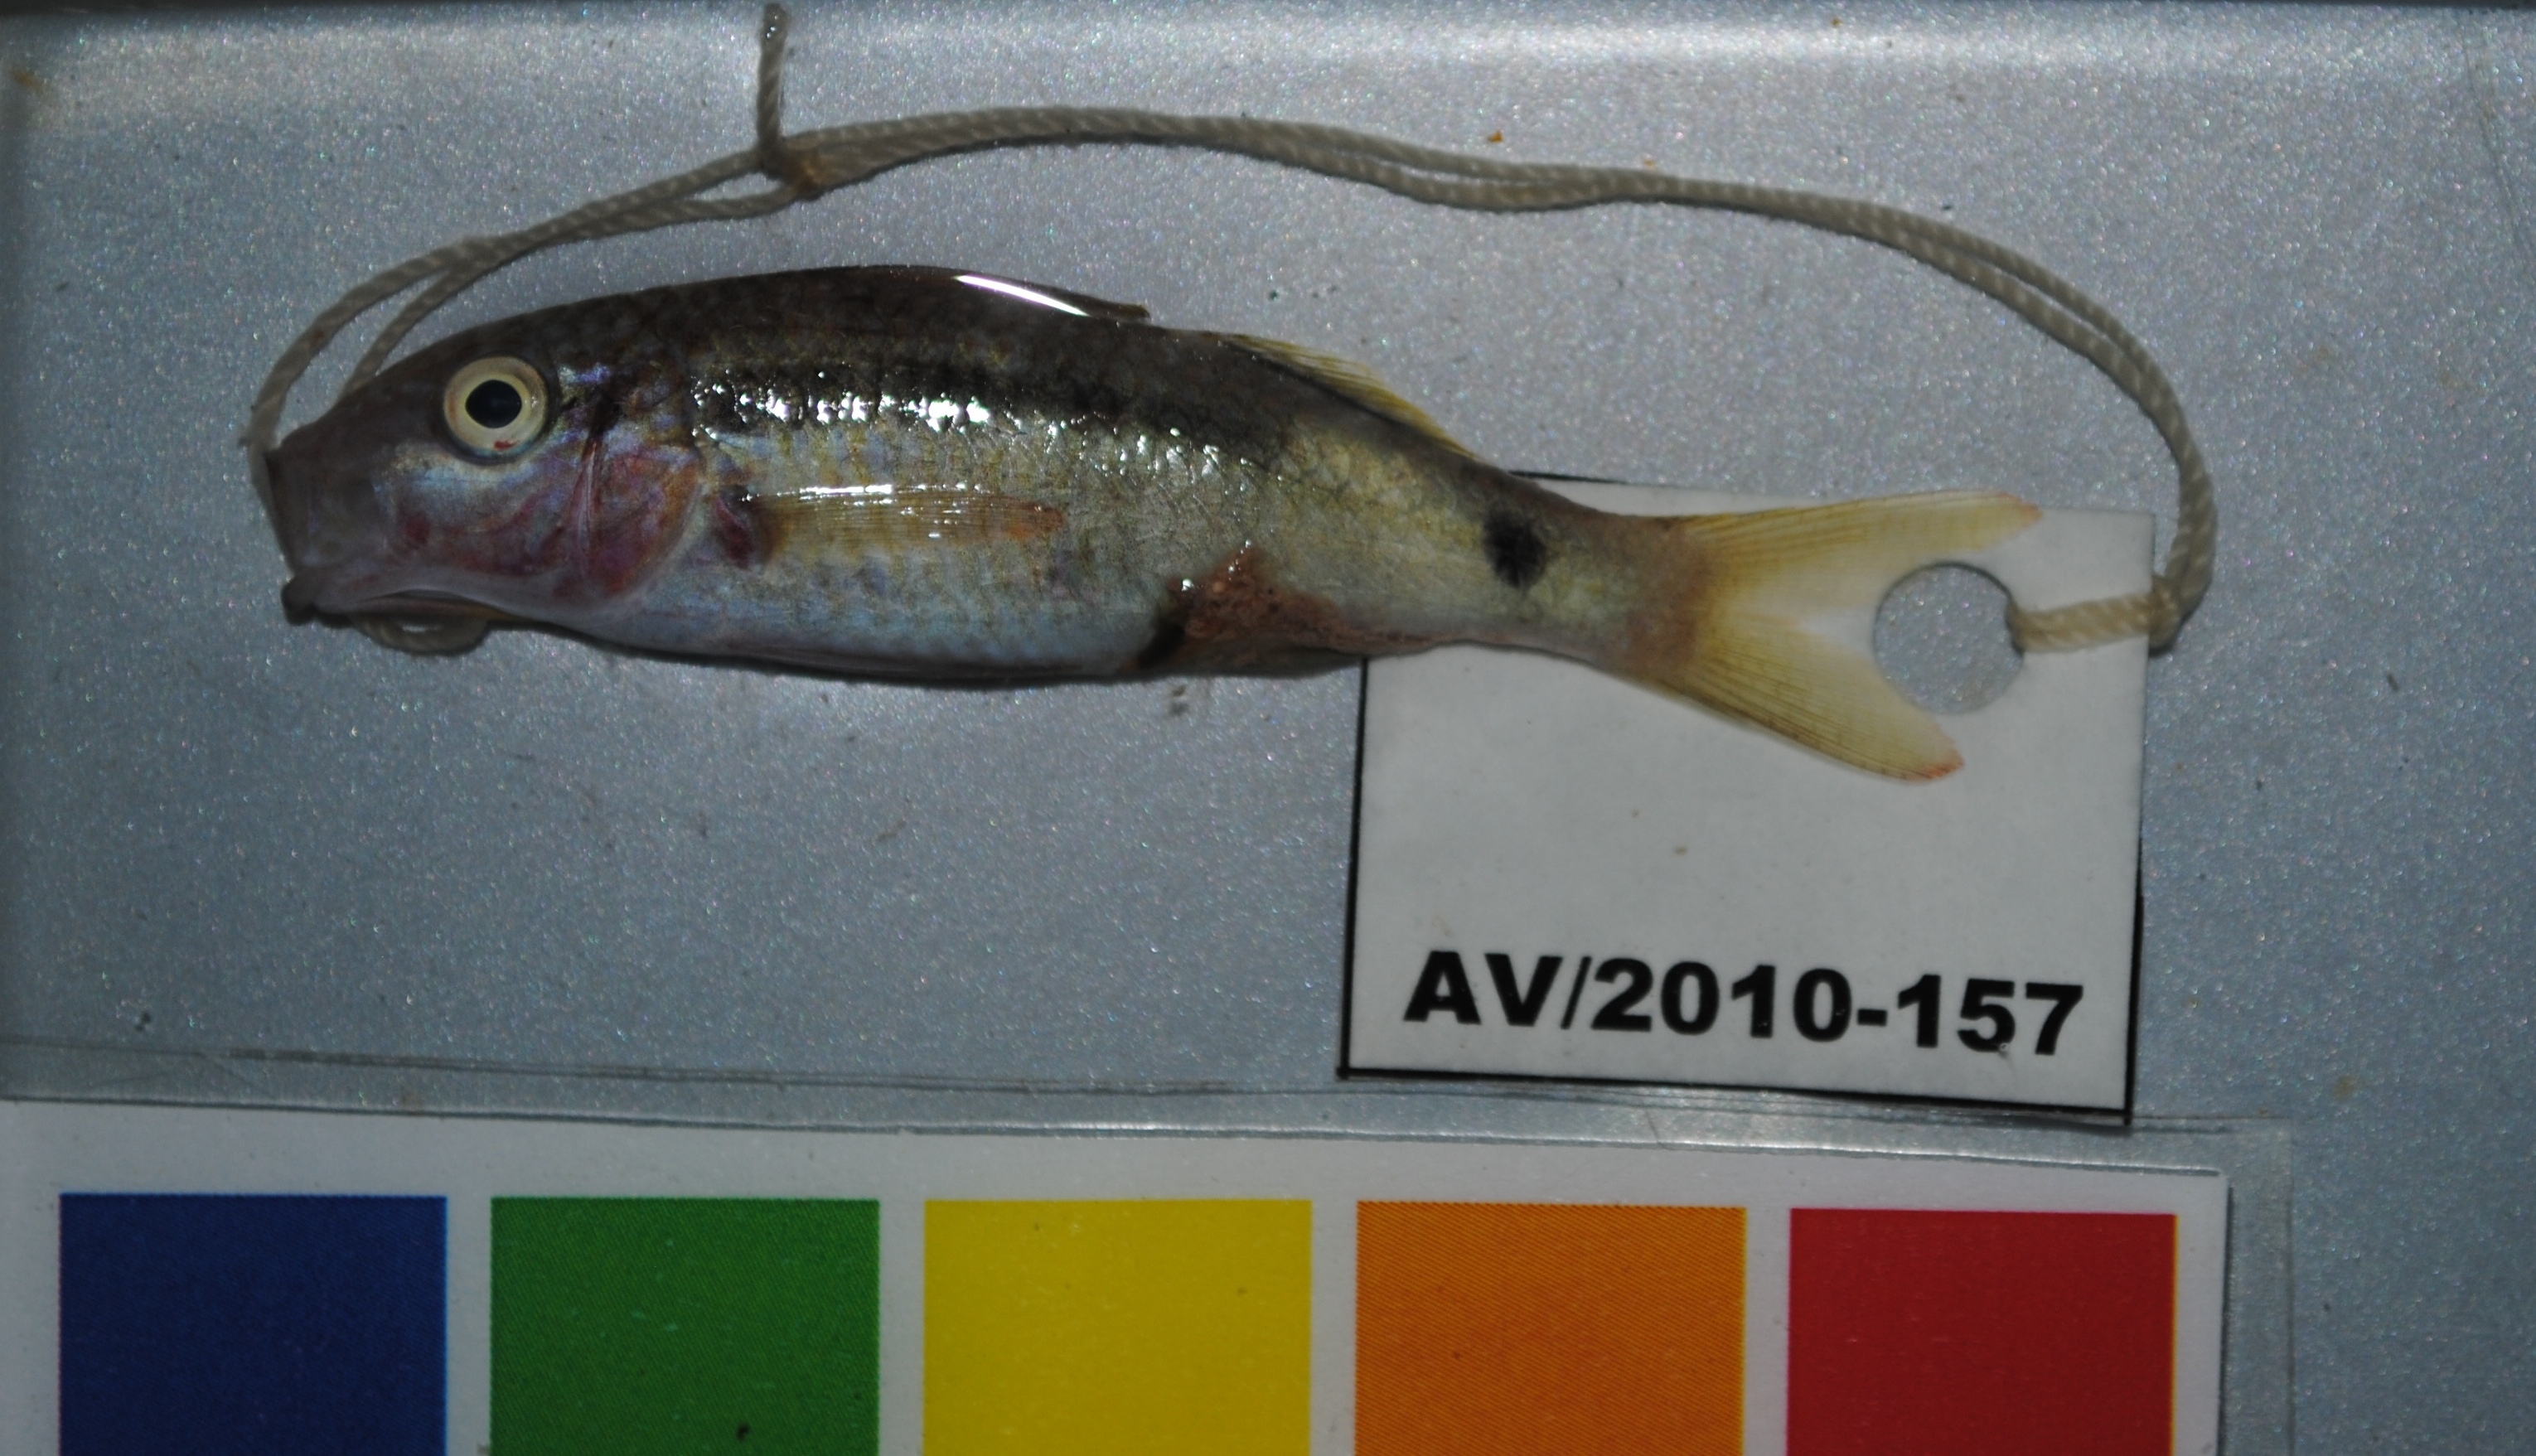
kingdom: Animalia
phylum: Chordata
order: Perciformes
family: Mullidae
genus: Parupeneus
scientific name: Parupeneus macronemus
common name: Long-barbel goatfish
